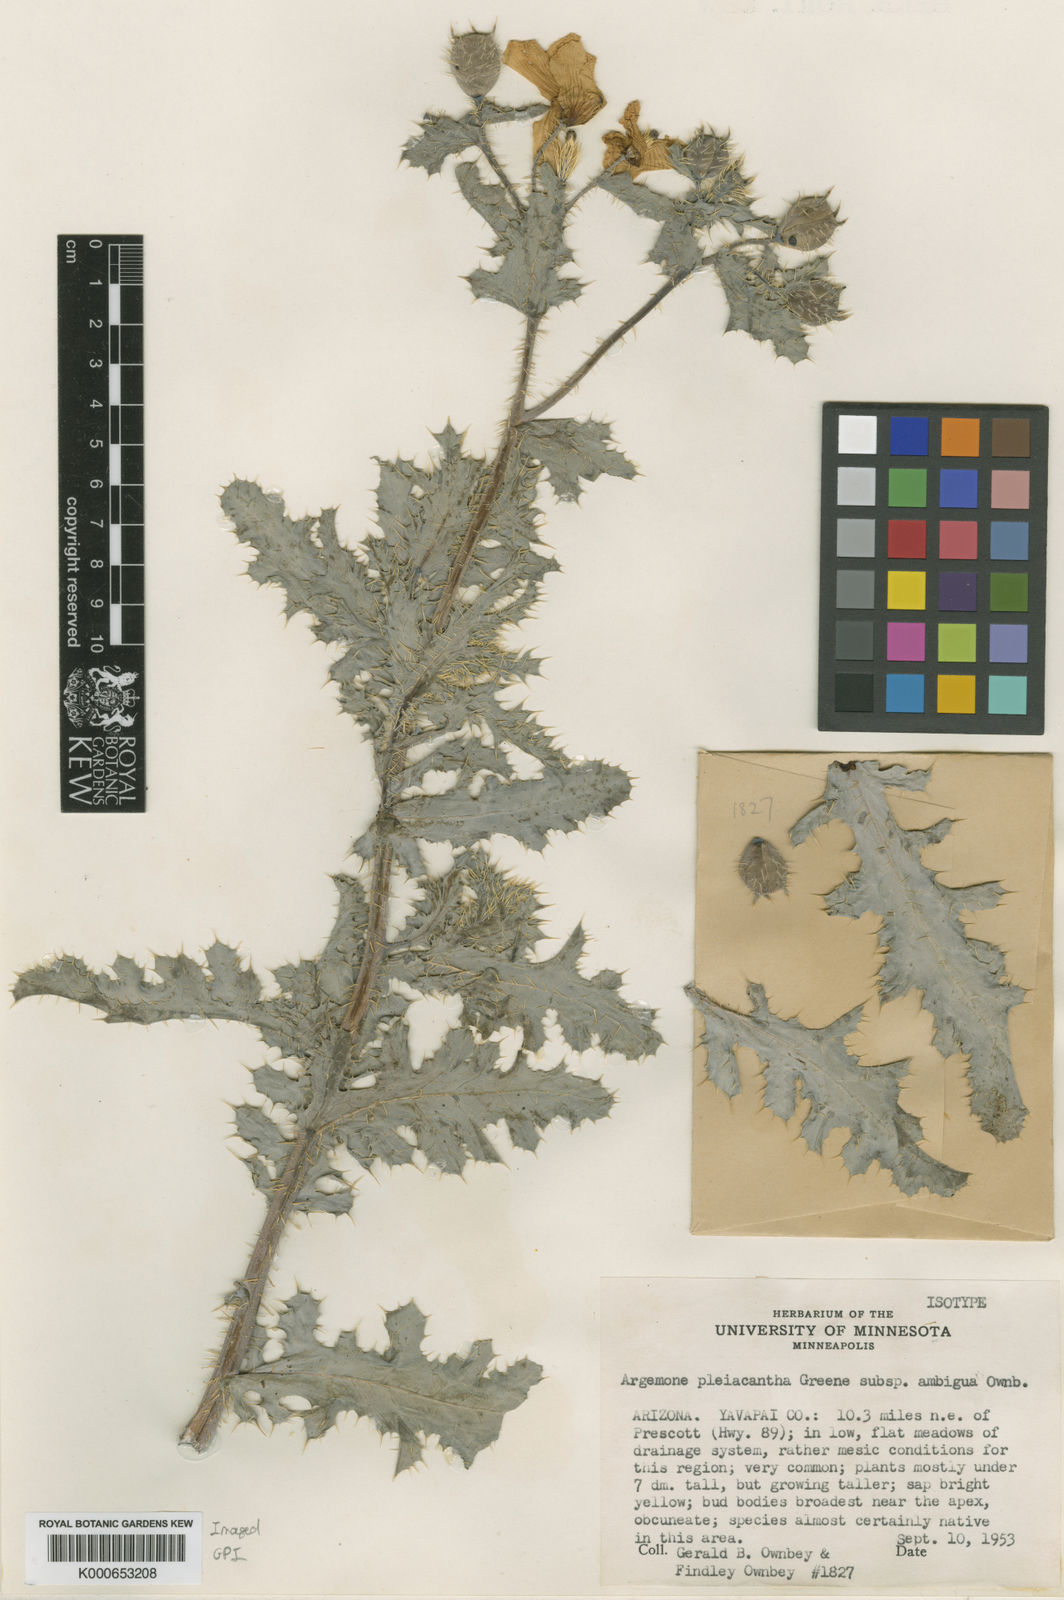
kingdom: Plantae
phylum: Tracheophyta
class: Magnoliopsida
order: Ranunculales
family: Papaveraceae
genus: Argemone
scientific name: Argemone pleiacantha
